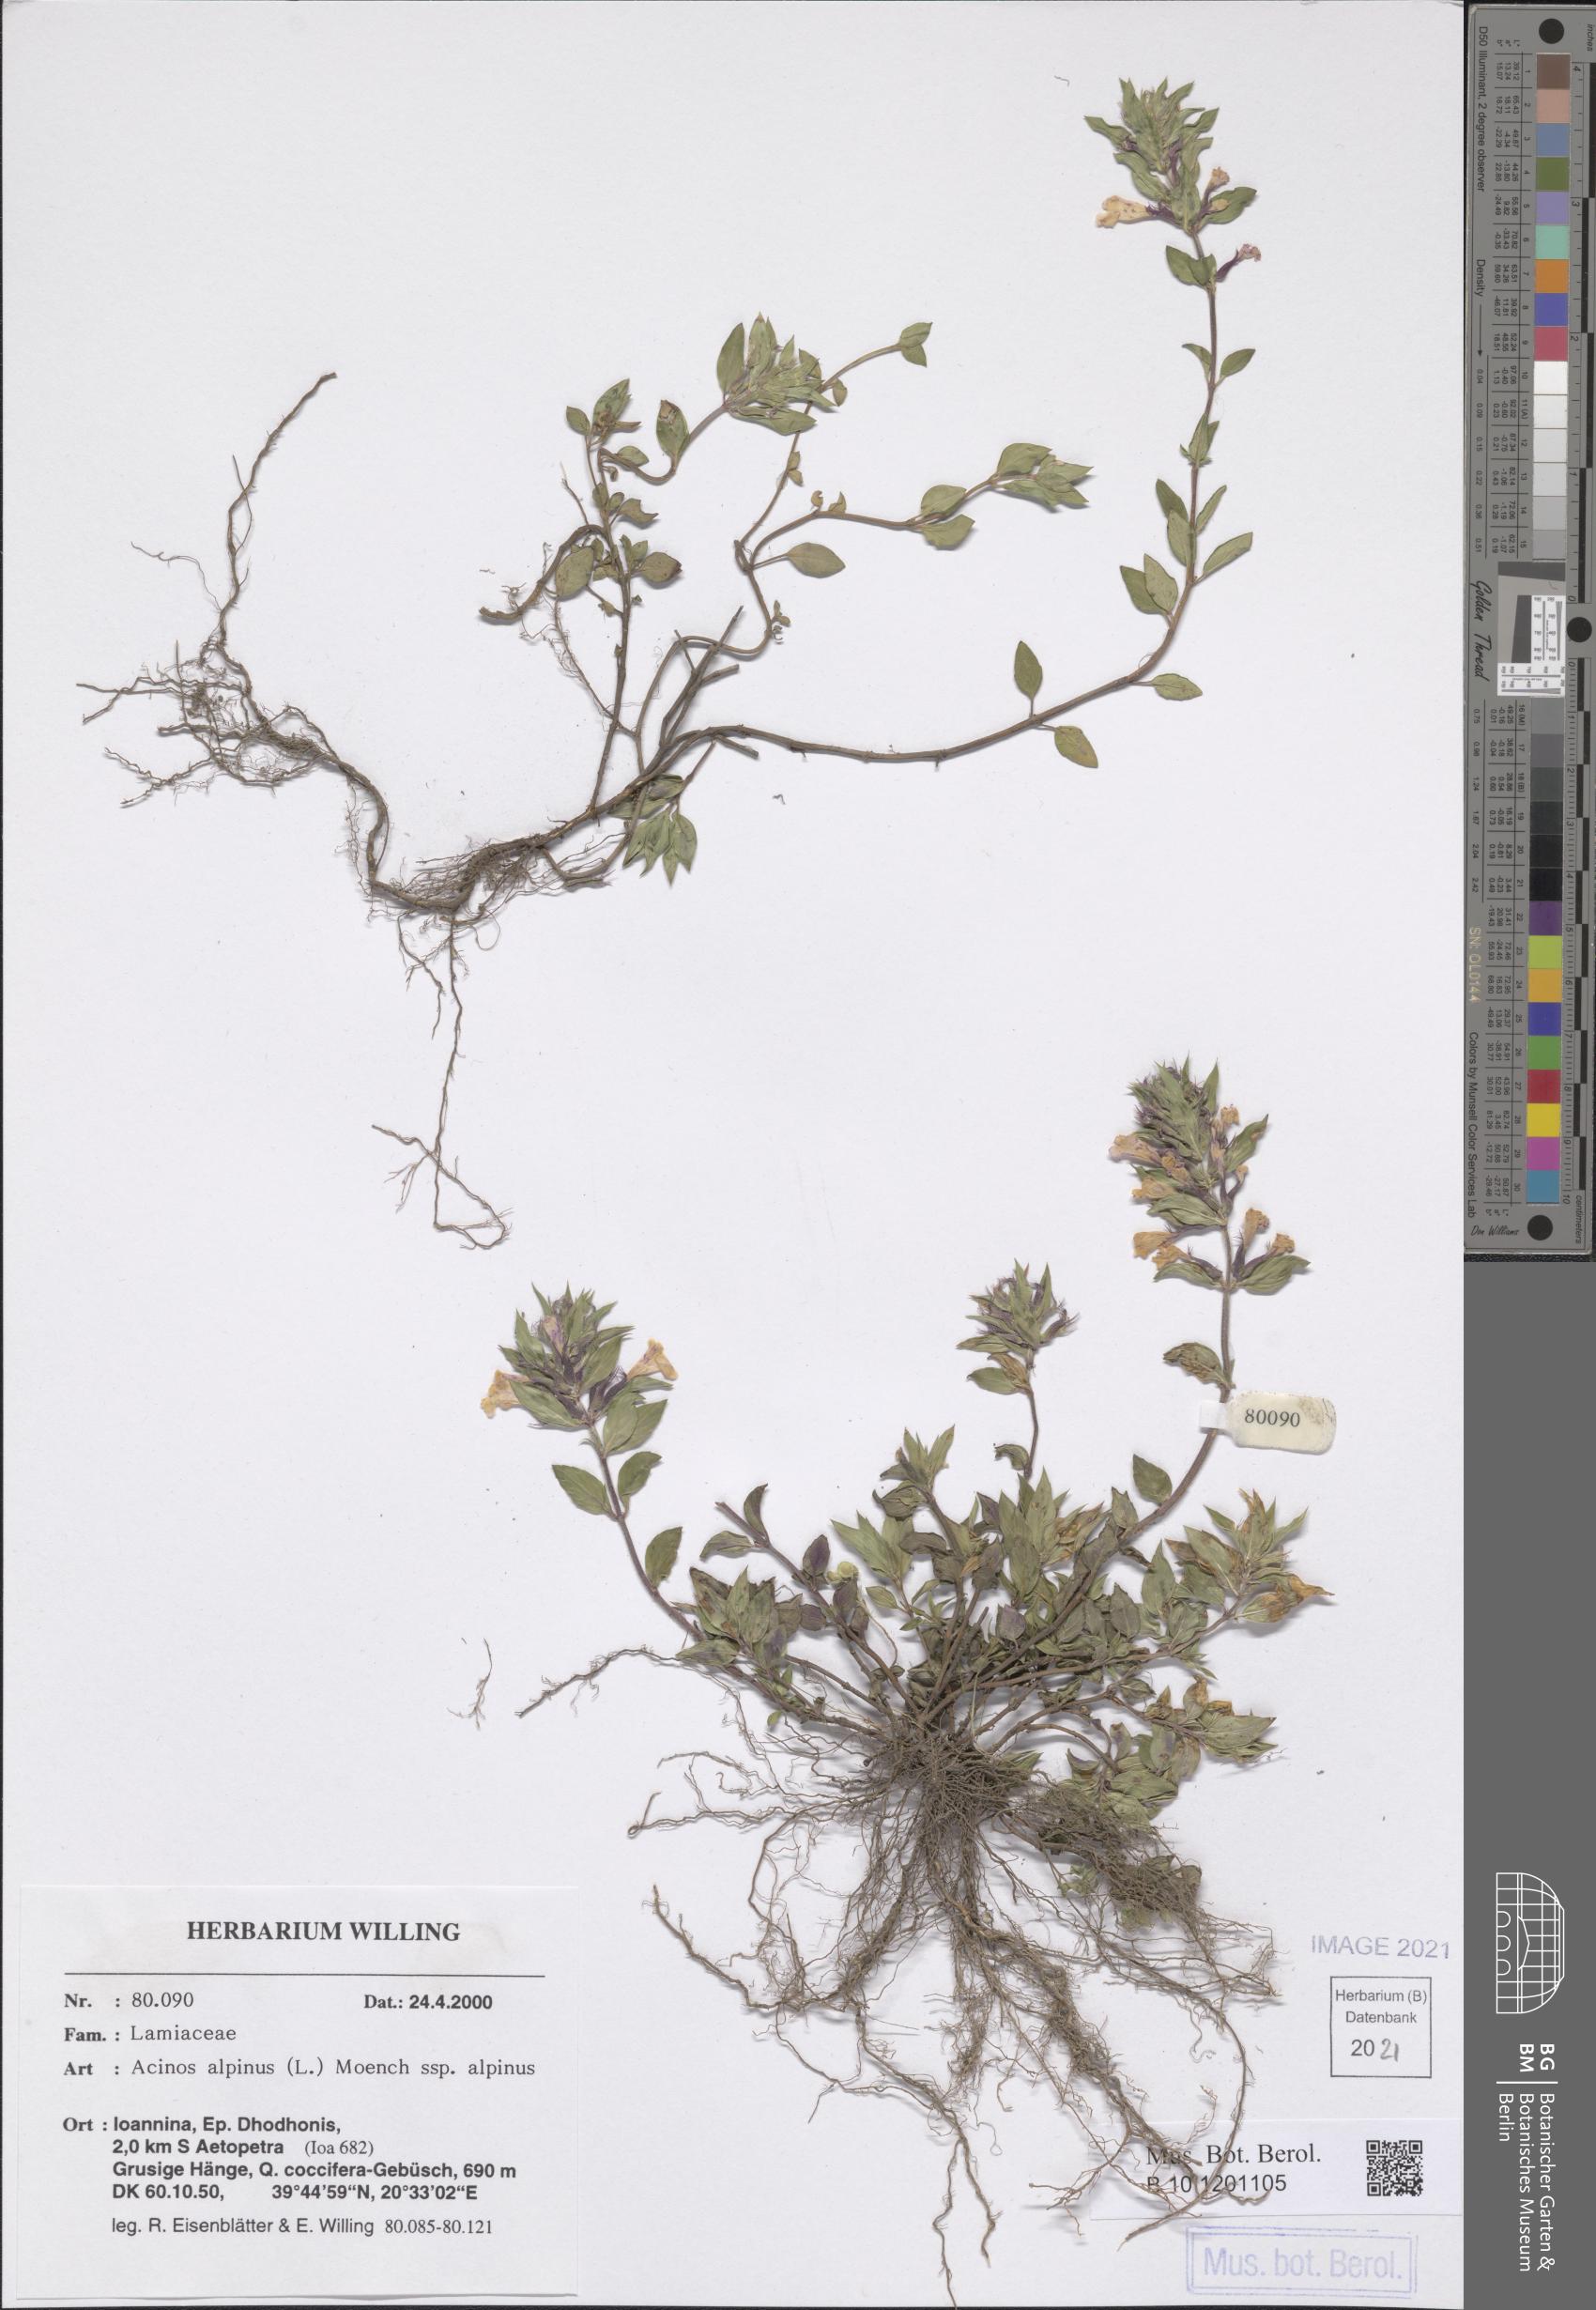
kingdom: Plantae
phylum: Tracheophyta
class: Magnoliopsida
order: Lamiales
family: Lamiaceae
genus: Clinopodium
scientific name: Clinopodium alpinum
